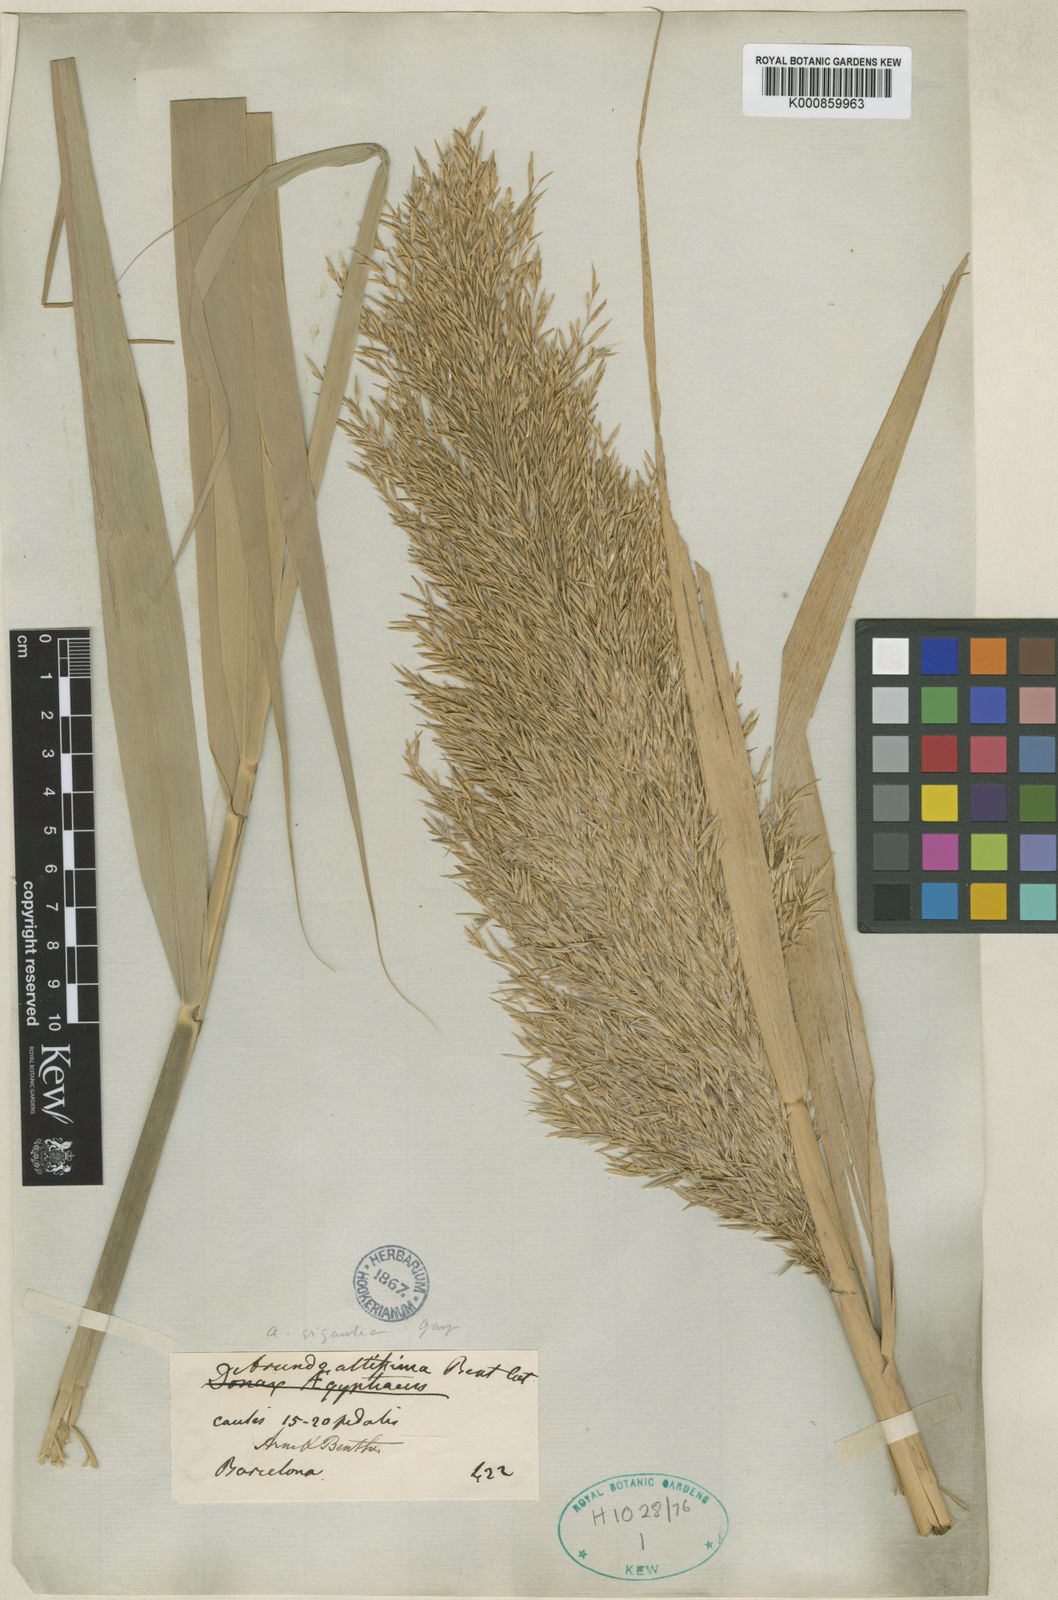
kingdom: Plantae
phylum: Tracheophyta
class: Liliopsida
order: Poales
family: Poaceae
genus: Phragmites
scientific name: Phragmites australis
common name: Common reed
